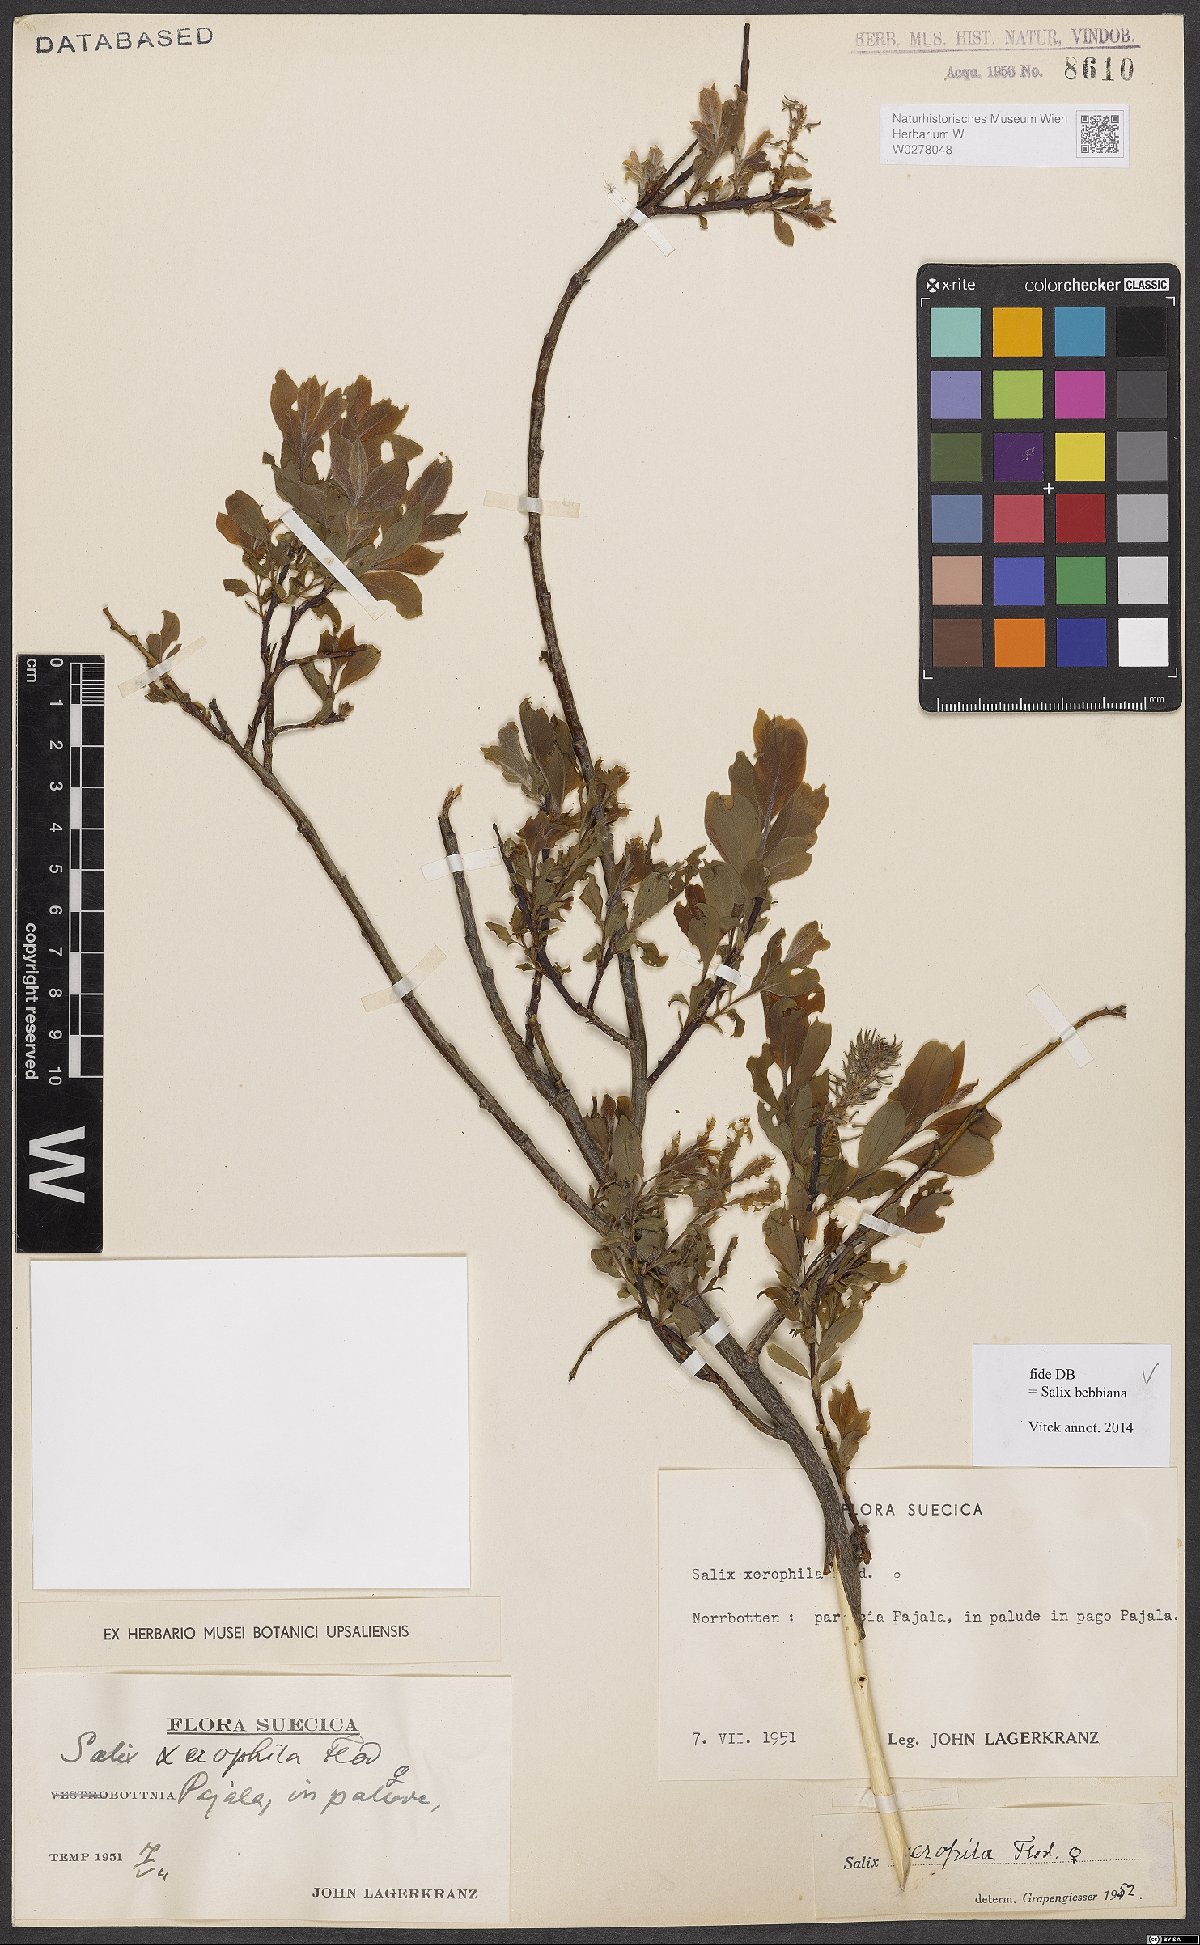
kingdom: Plantae
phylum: Tracheophyta
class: Magnoliopsida
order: Malpighiales
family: Salicaceae
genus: Salix
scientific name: Salix bebbiana
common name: Bebb's willow
